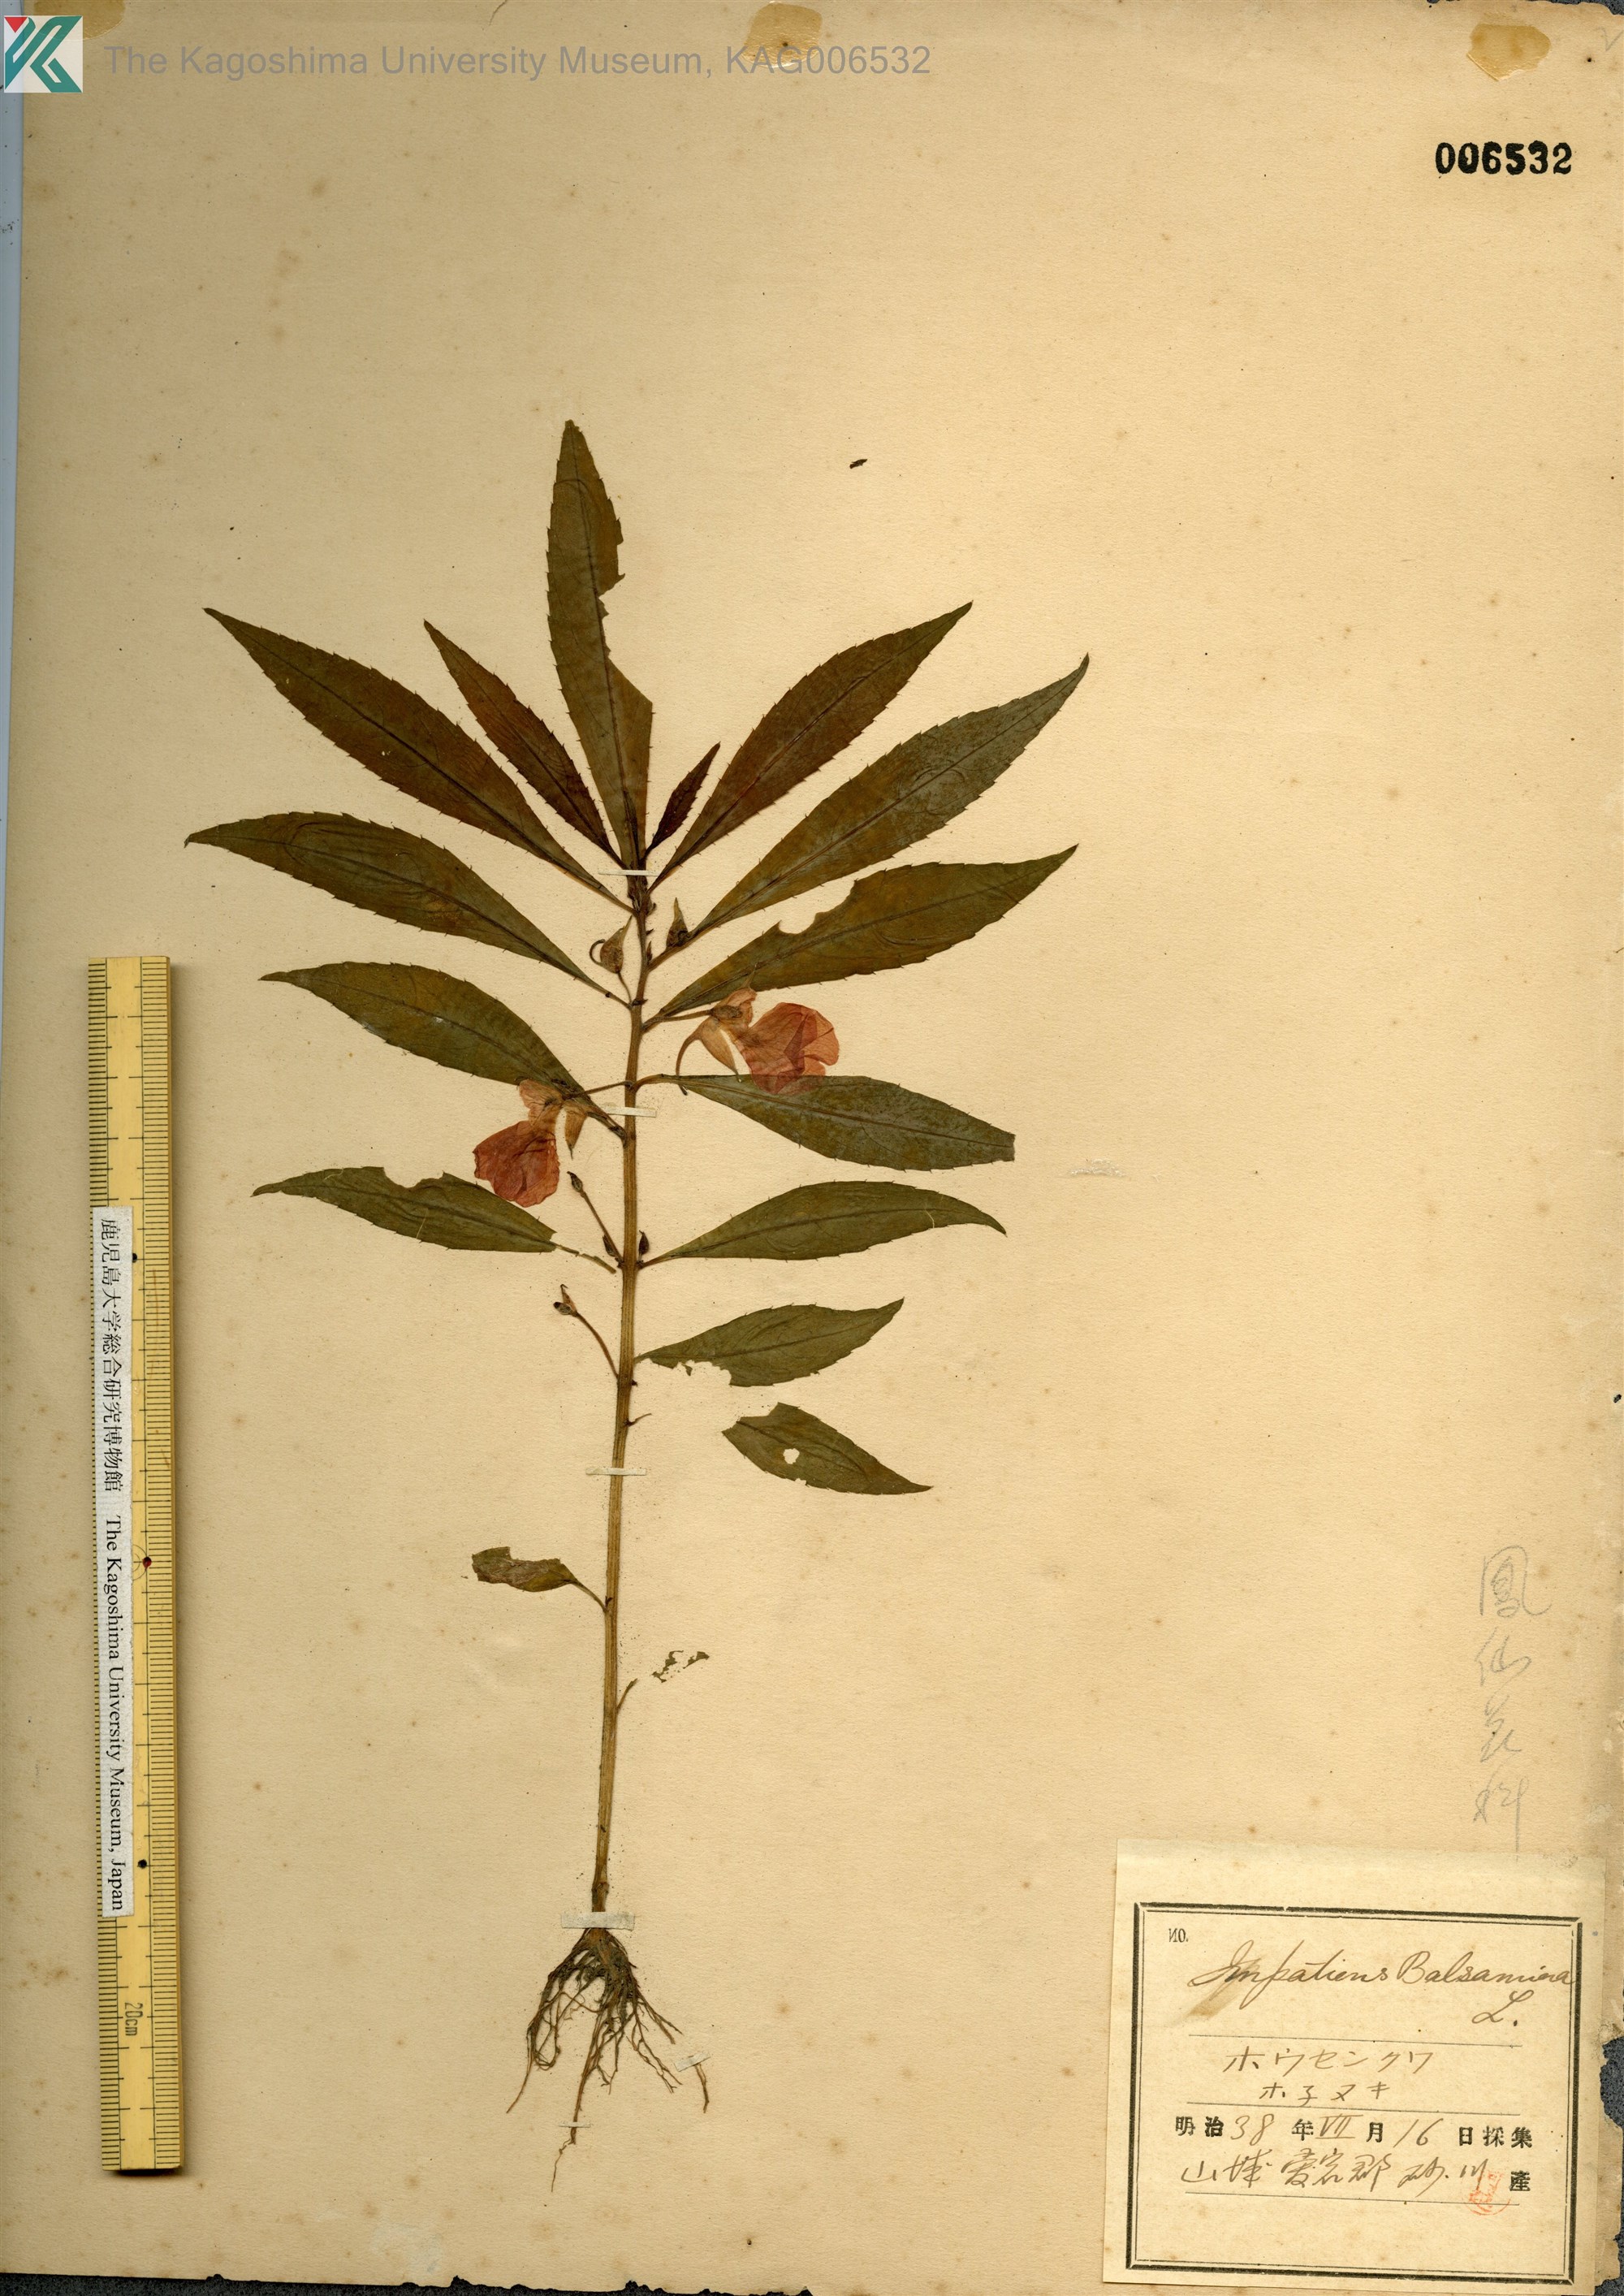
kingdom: Plantae
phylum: Tracheophyta
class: Magnoliopsida
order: Ericales
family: Balsaminaceae
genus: Impatiens
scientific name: Impatiens balsamina
